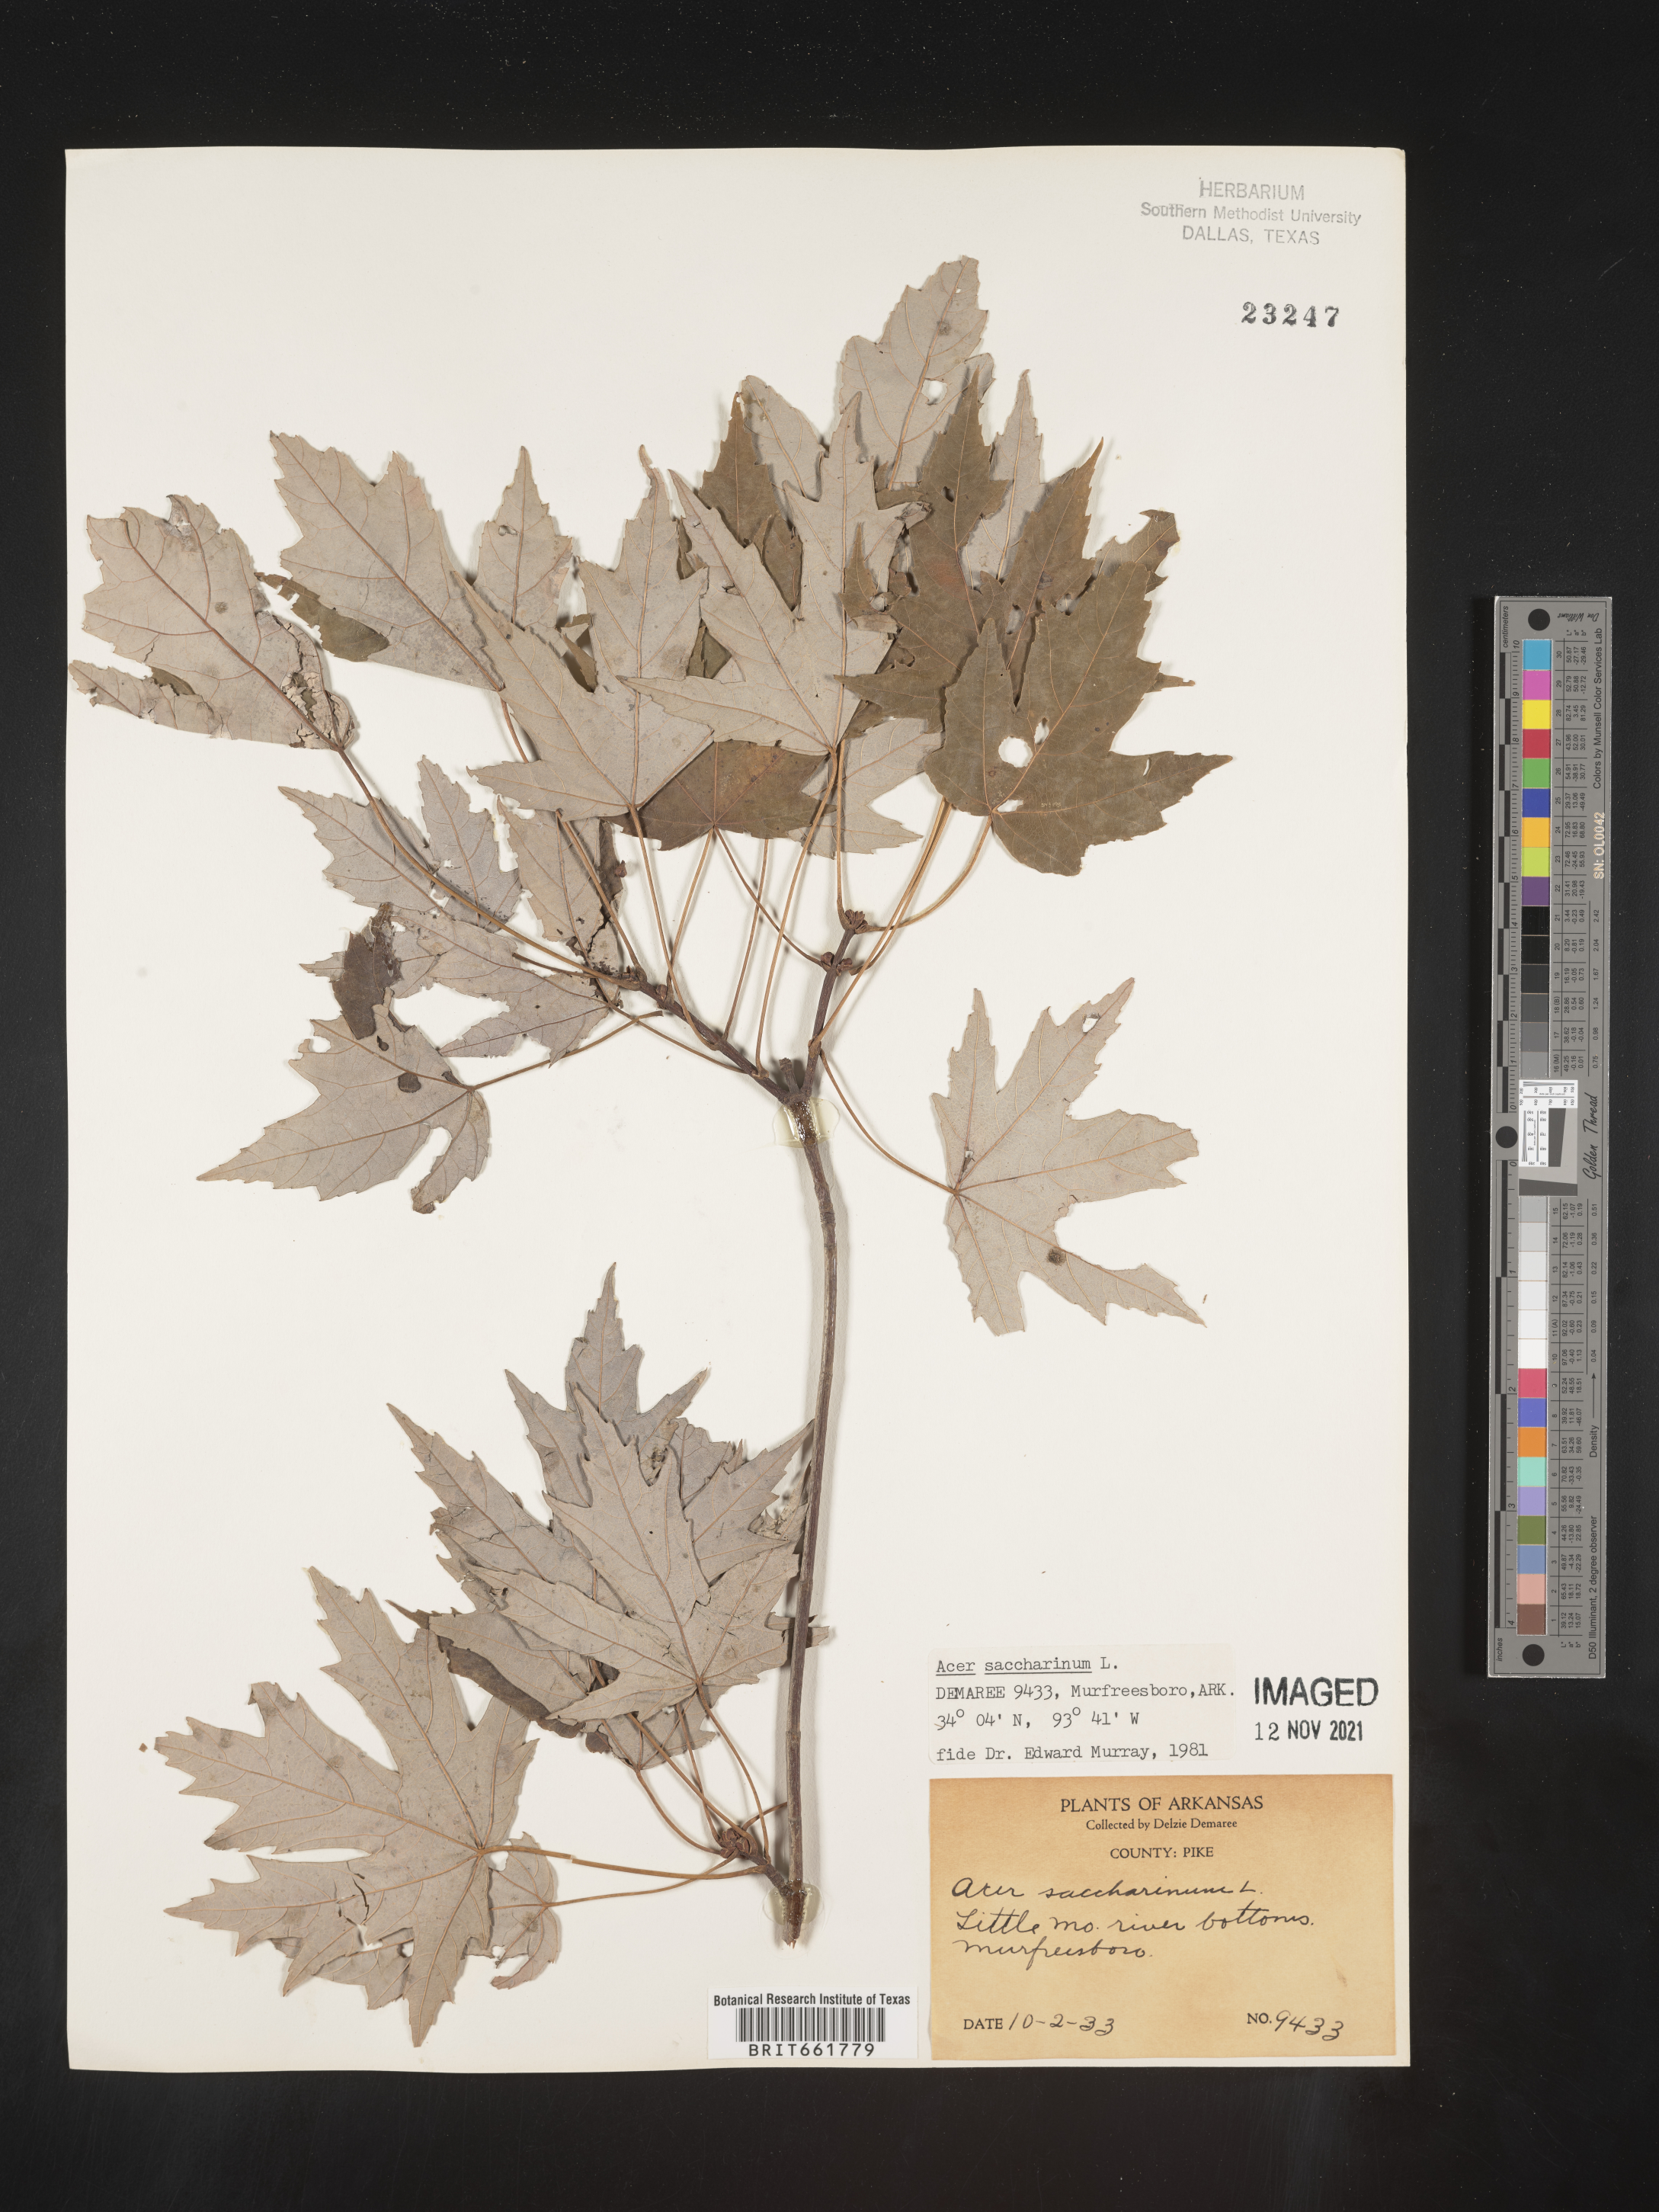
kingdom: Plantae
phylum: Tracheophyta
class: Magnoliopsida
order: Sapindales
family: Sapindaceae
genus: Acer
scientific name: Acer saccharinum
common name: Silver maple
